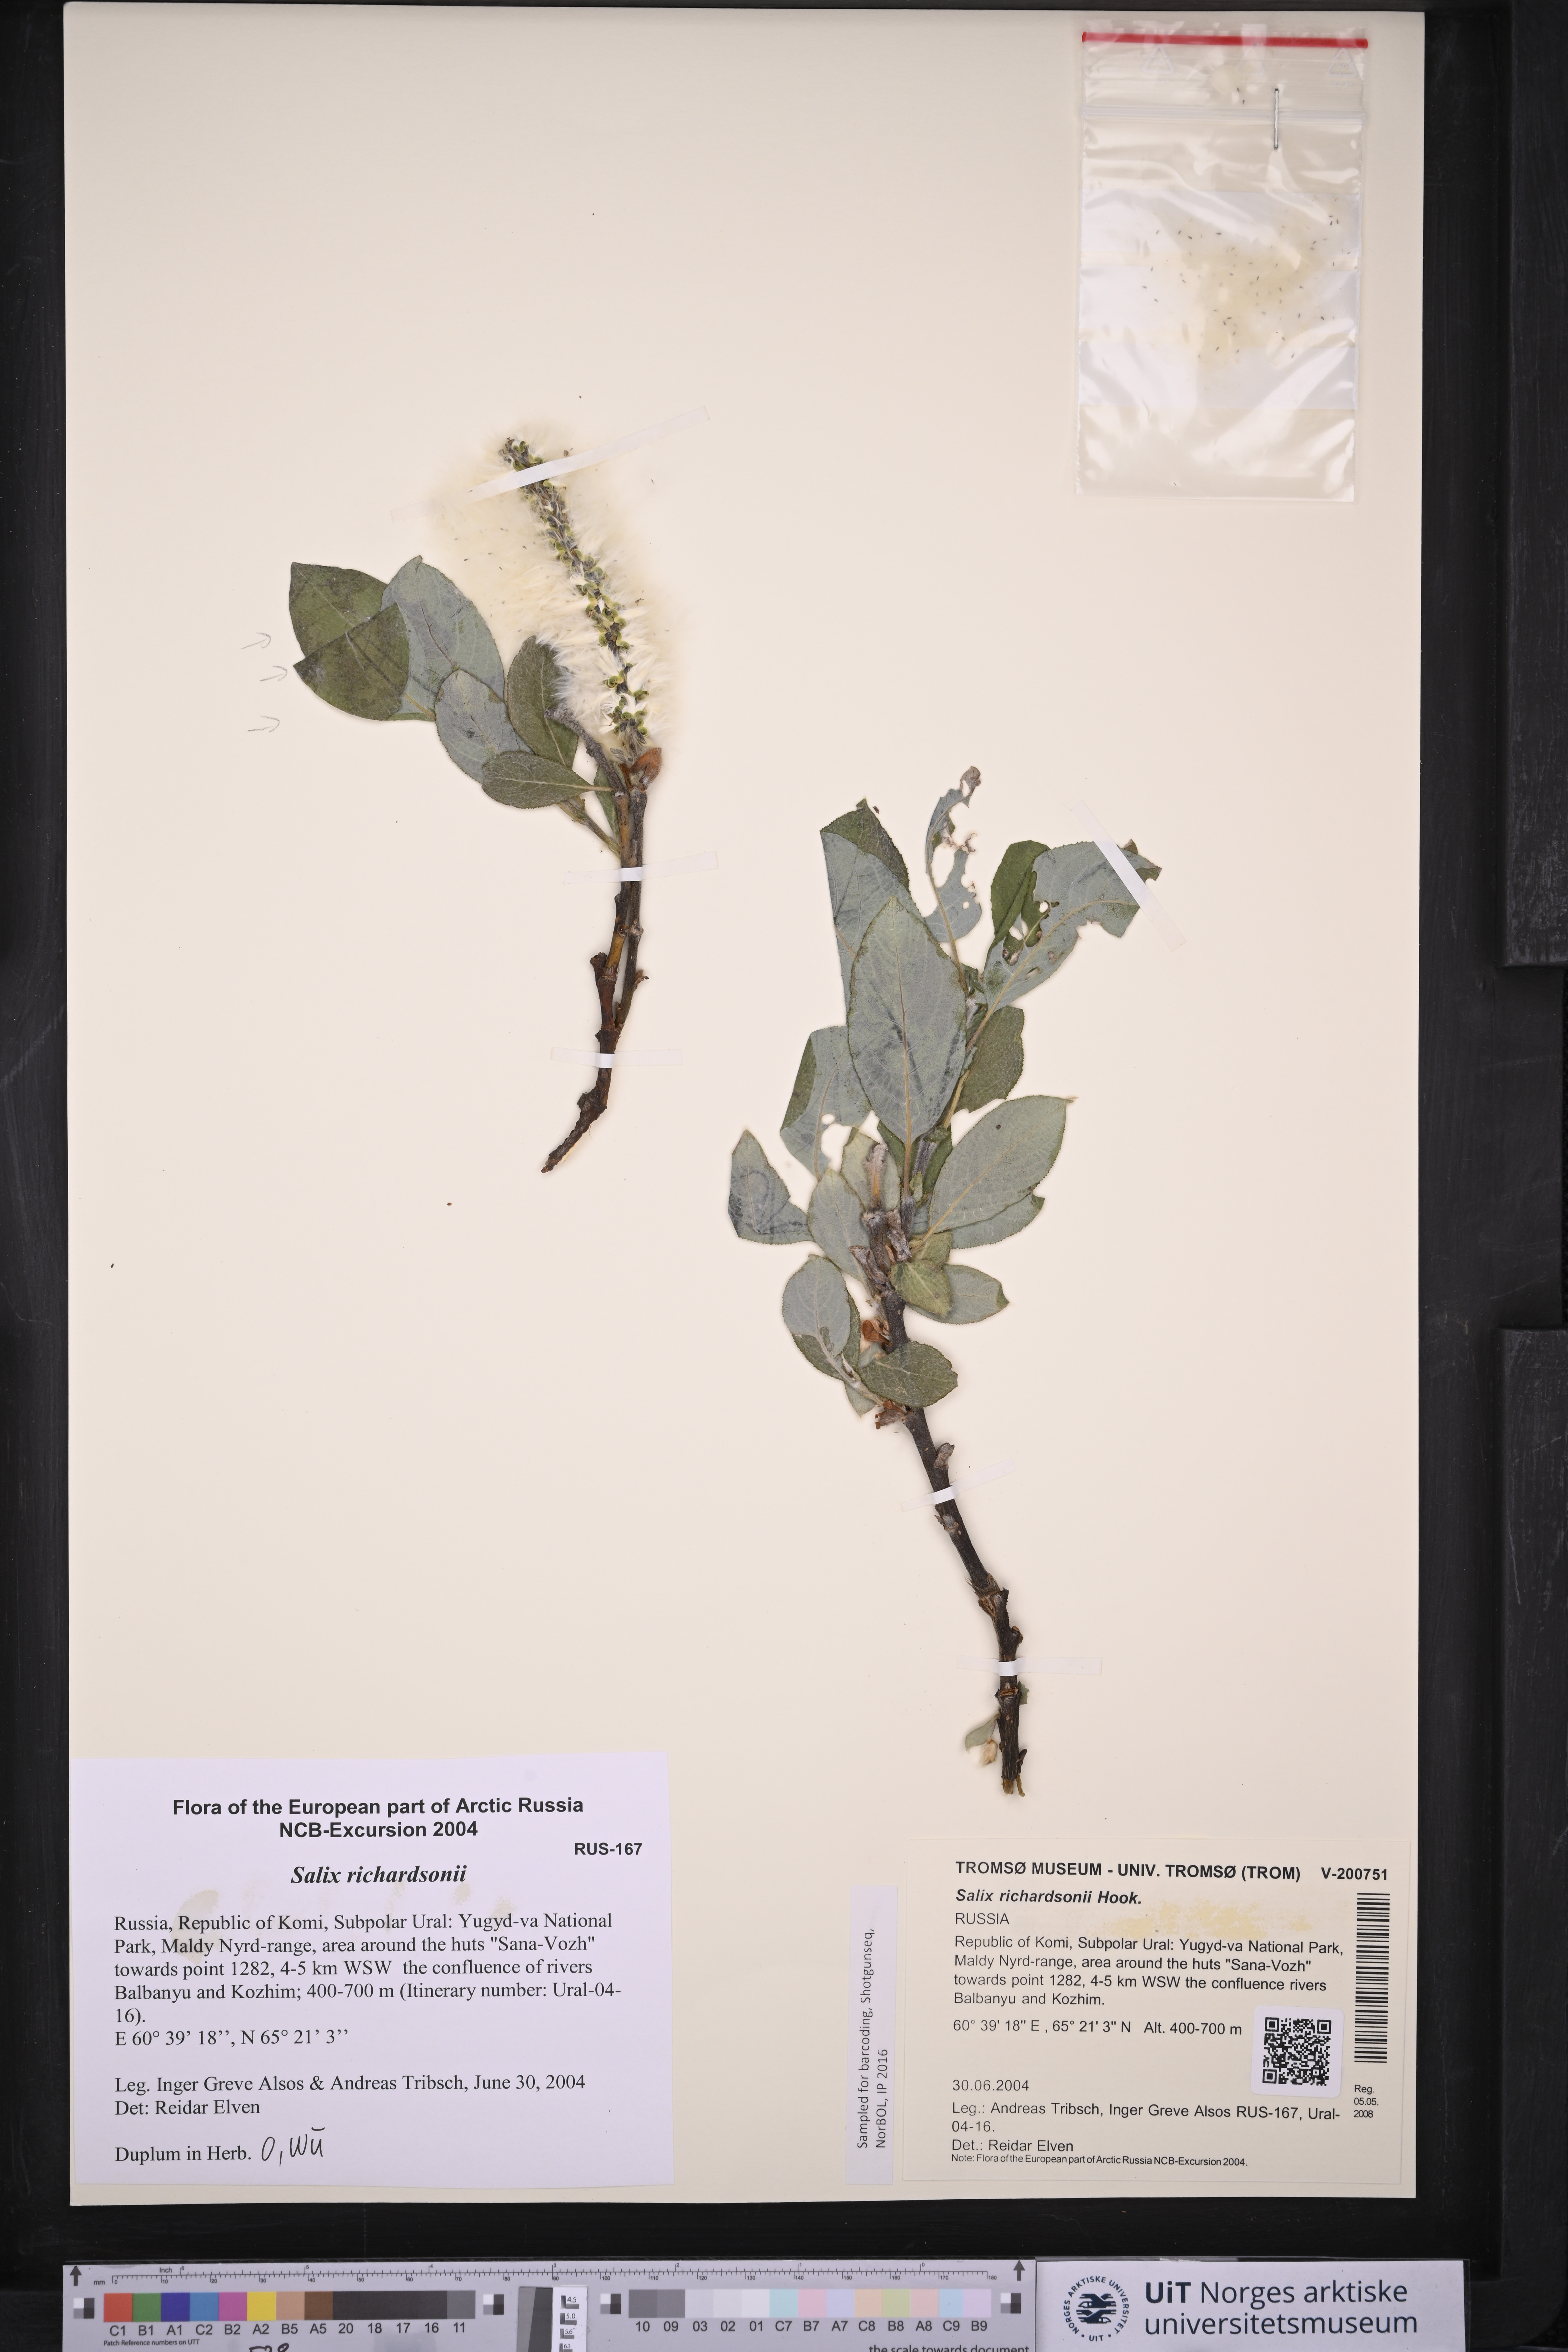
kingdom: Plantae
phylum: Tracheophyta
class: Magnoliopsida
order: Malpighiales
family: Salicaceae
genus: Salix
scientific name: Salix richardsonii
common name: Richardson’s willow
